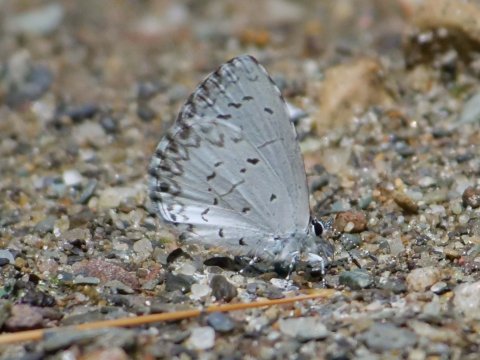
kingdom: Animalia
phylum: Arthropoda
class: Insecta
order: Lepidoptera
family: Lycaenidae
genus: Celastrina
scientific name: Celastrina
